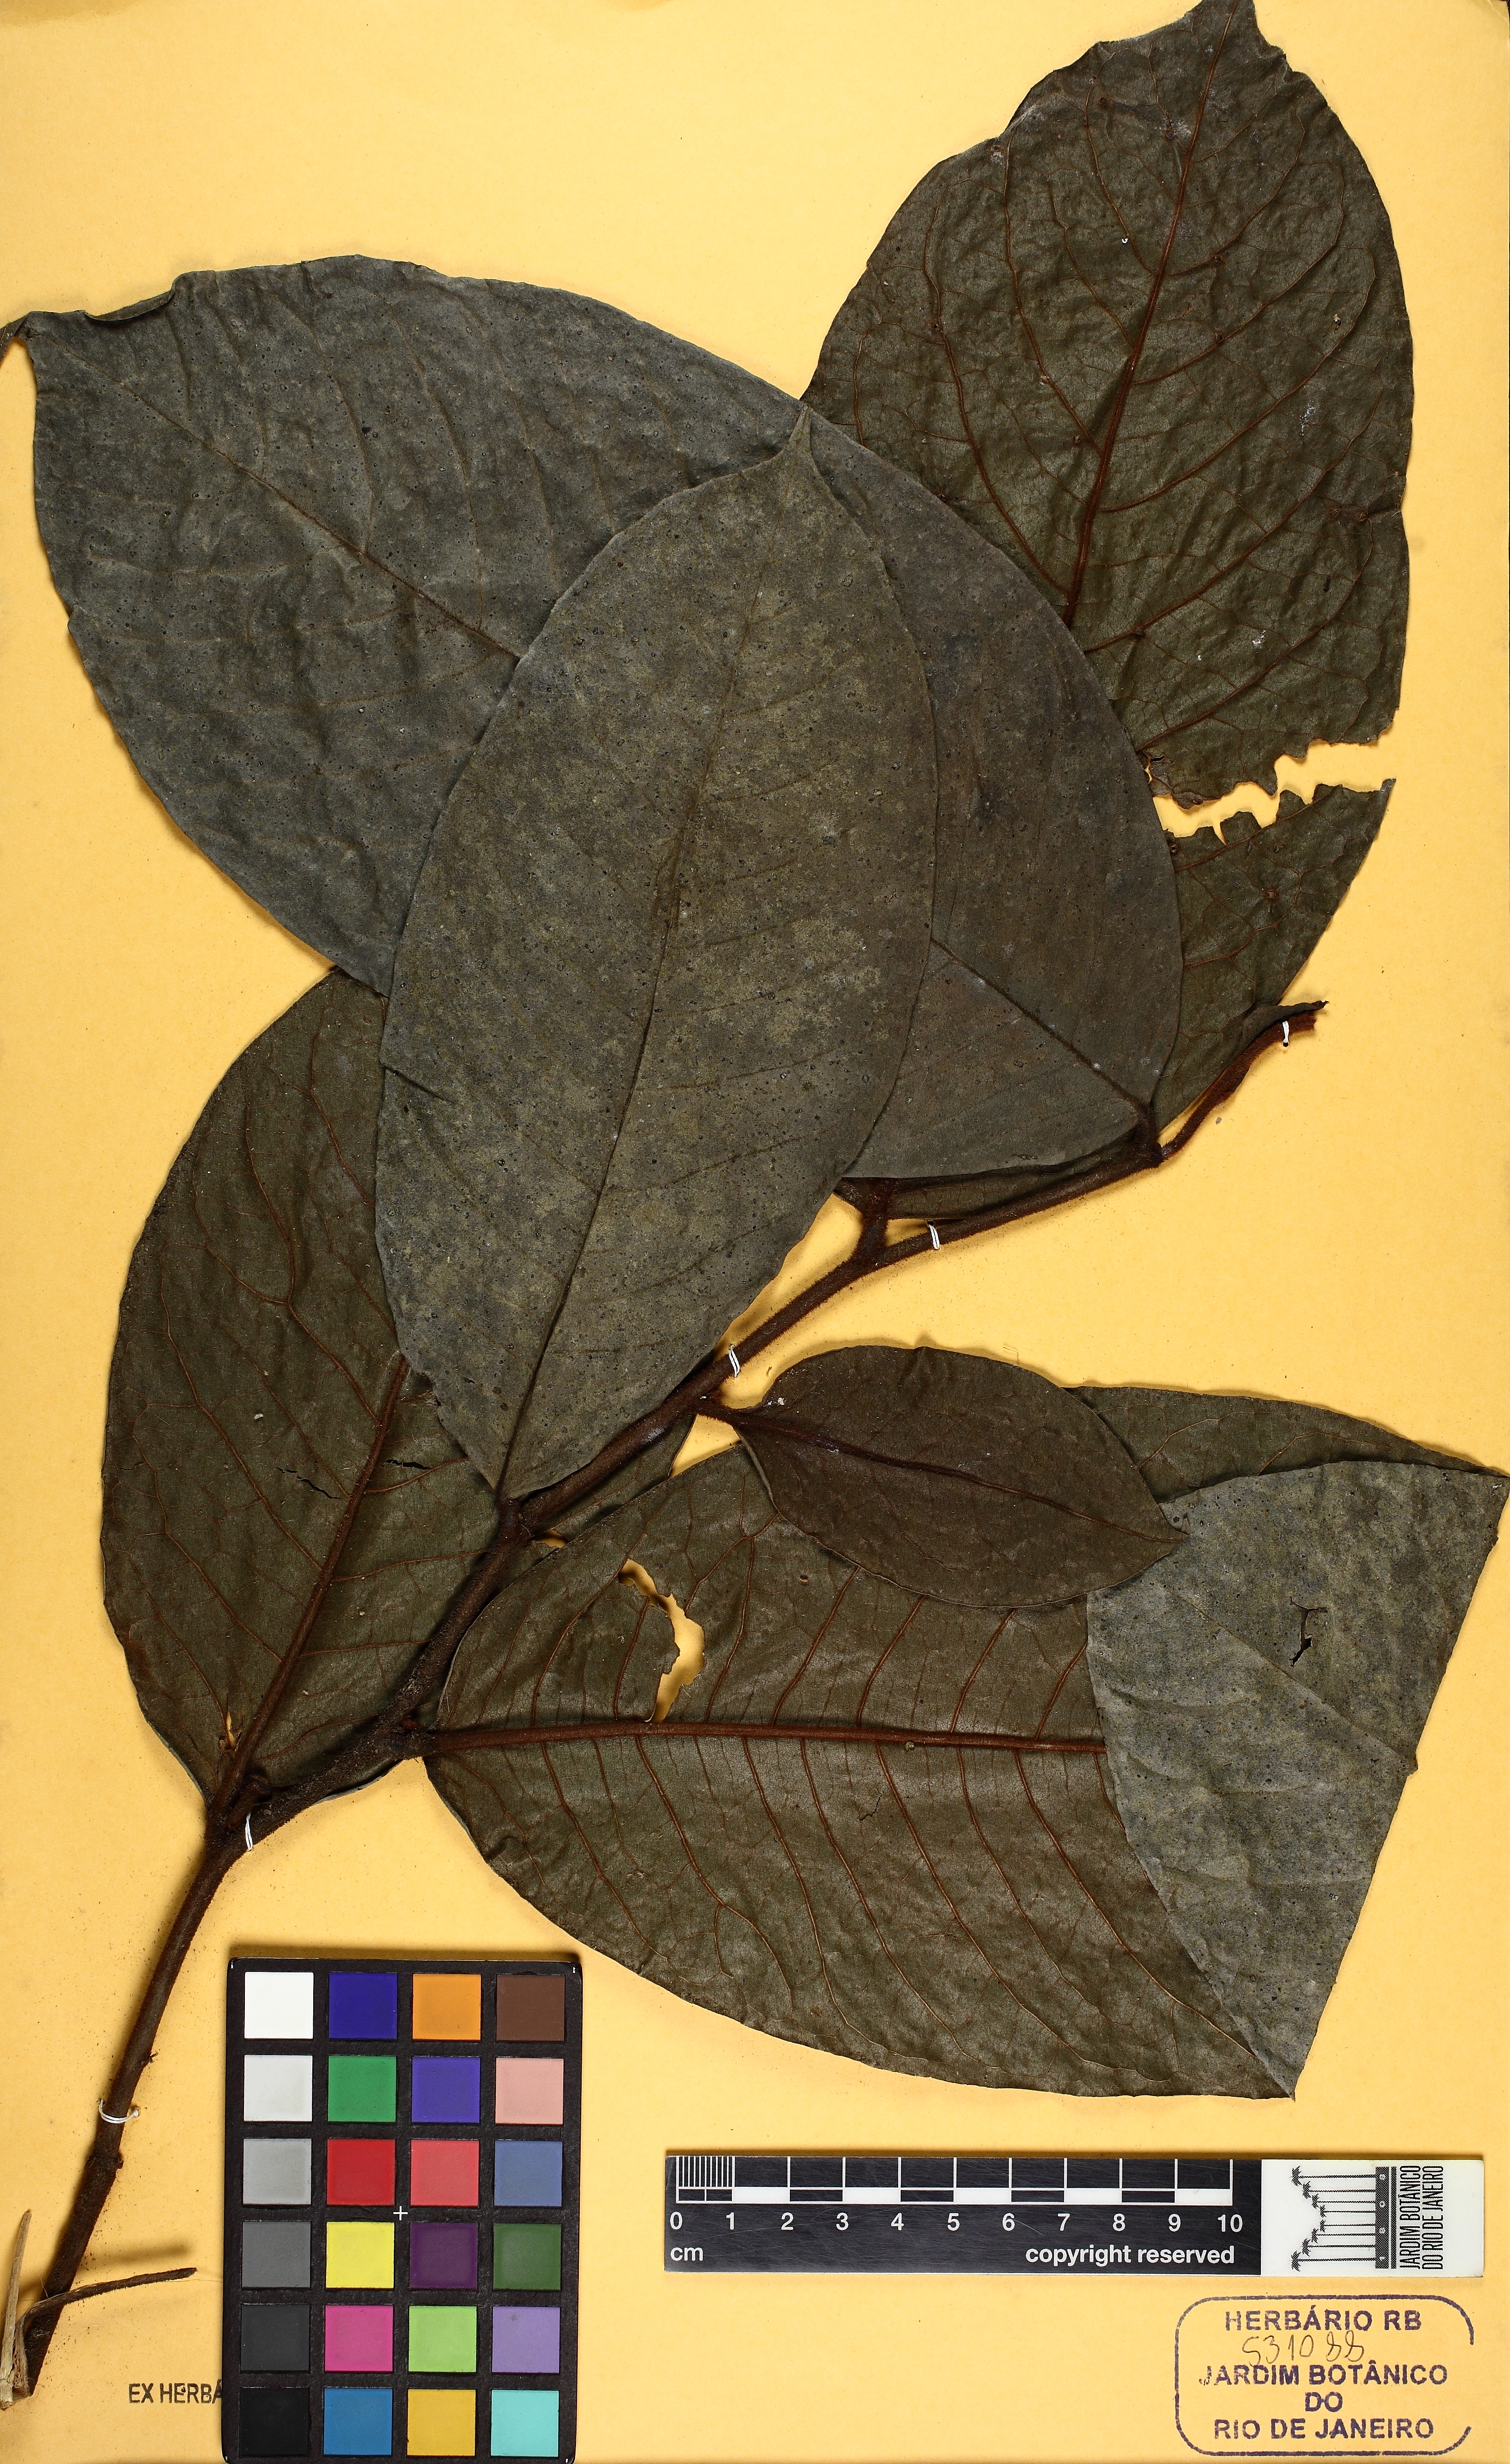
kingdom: Plantae
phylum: Tracheophyta
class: Magnoliopsida
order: Magnoliales
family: Annonaceae
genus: Guatteria
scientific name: Guatteria ferruginea
